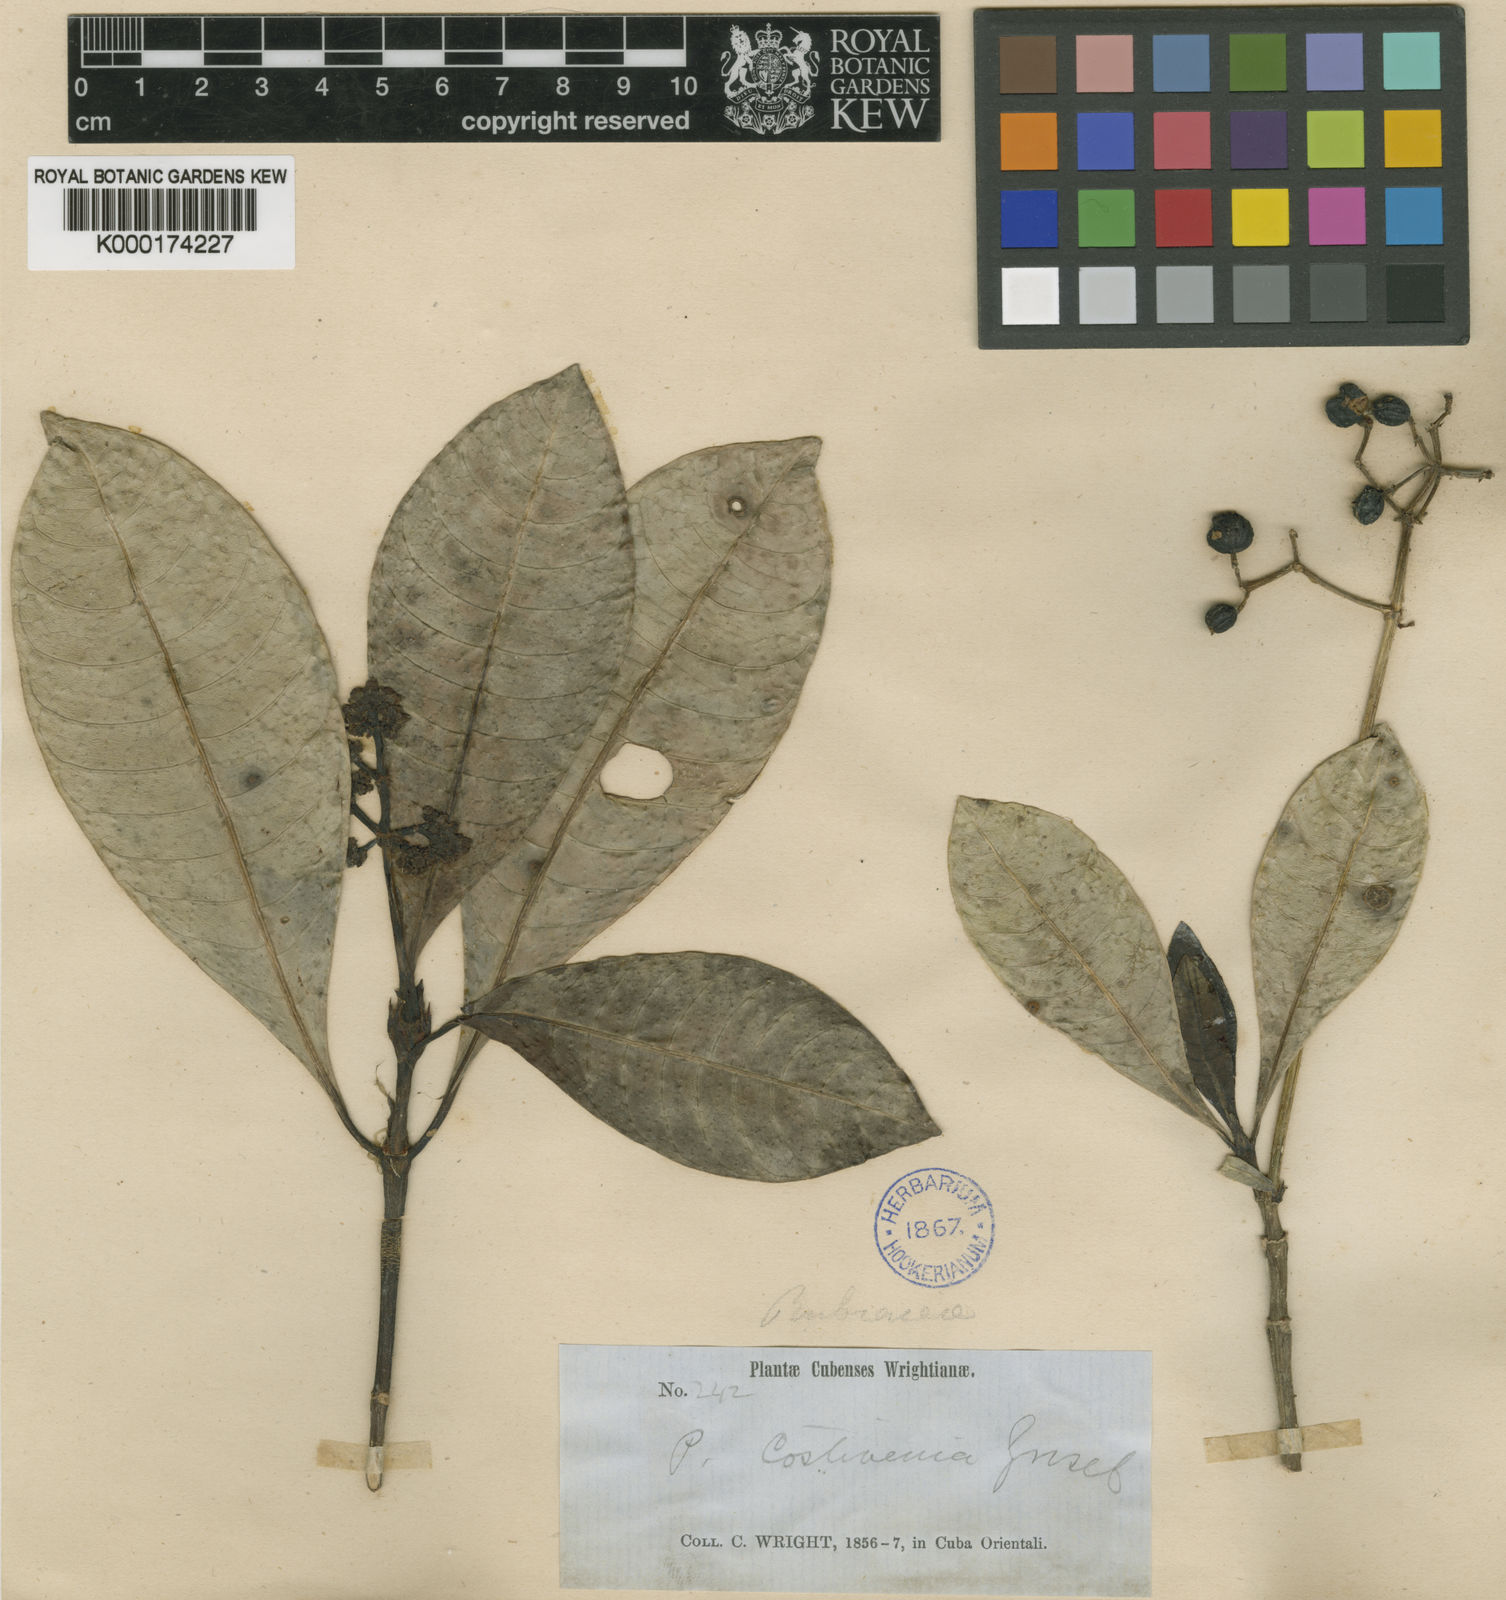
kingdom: Plantae
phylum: Tracheophyta
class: Magnoliopsida
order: Gentianales
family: Rubiaceae
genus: Psychotria
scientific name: Psychotria costivenia
